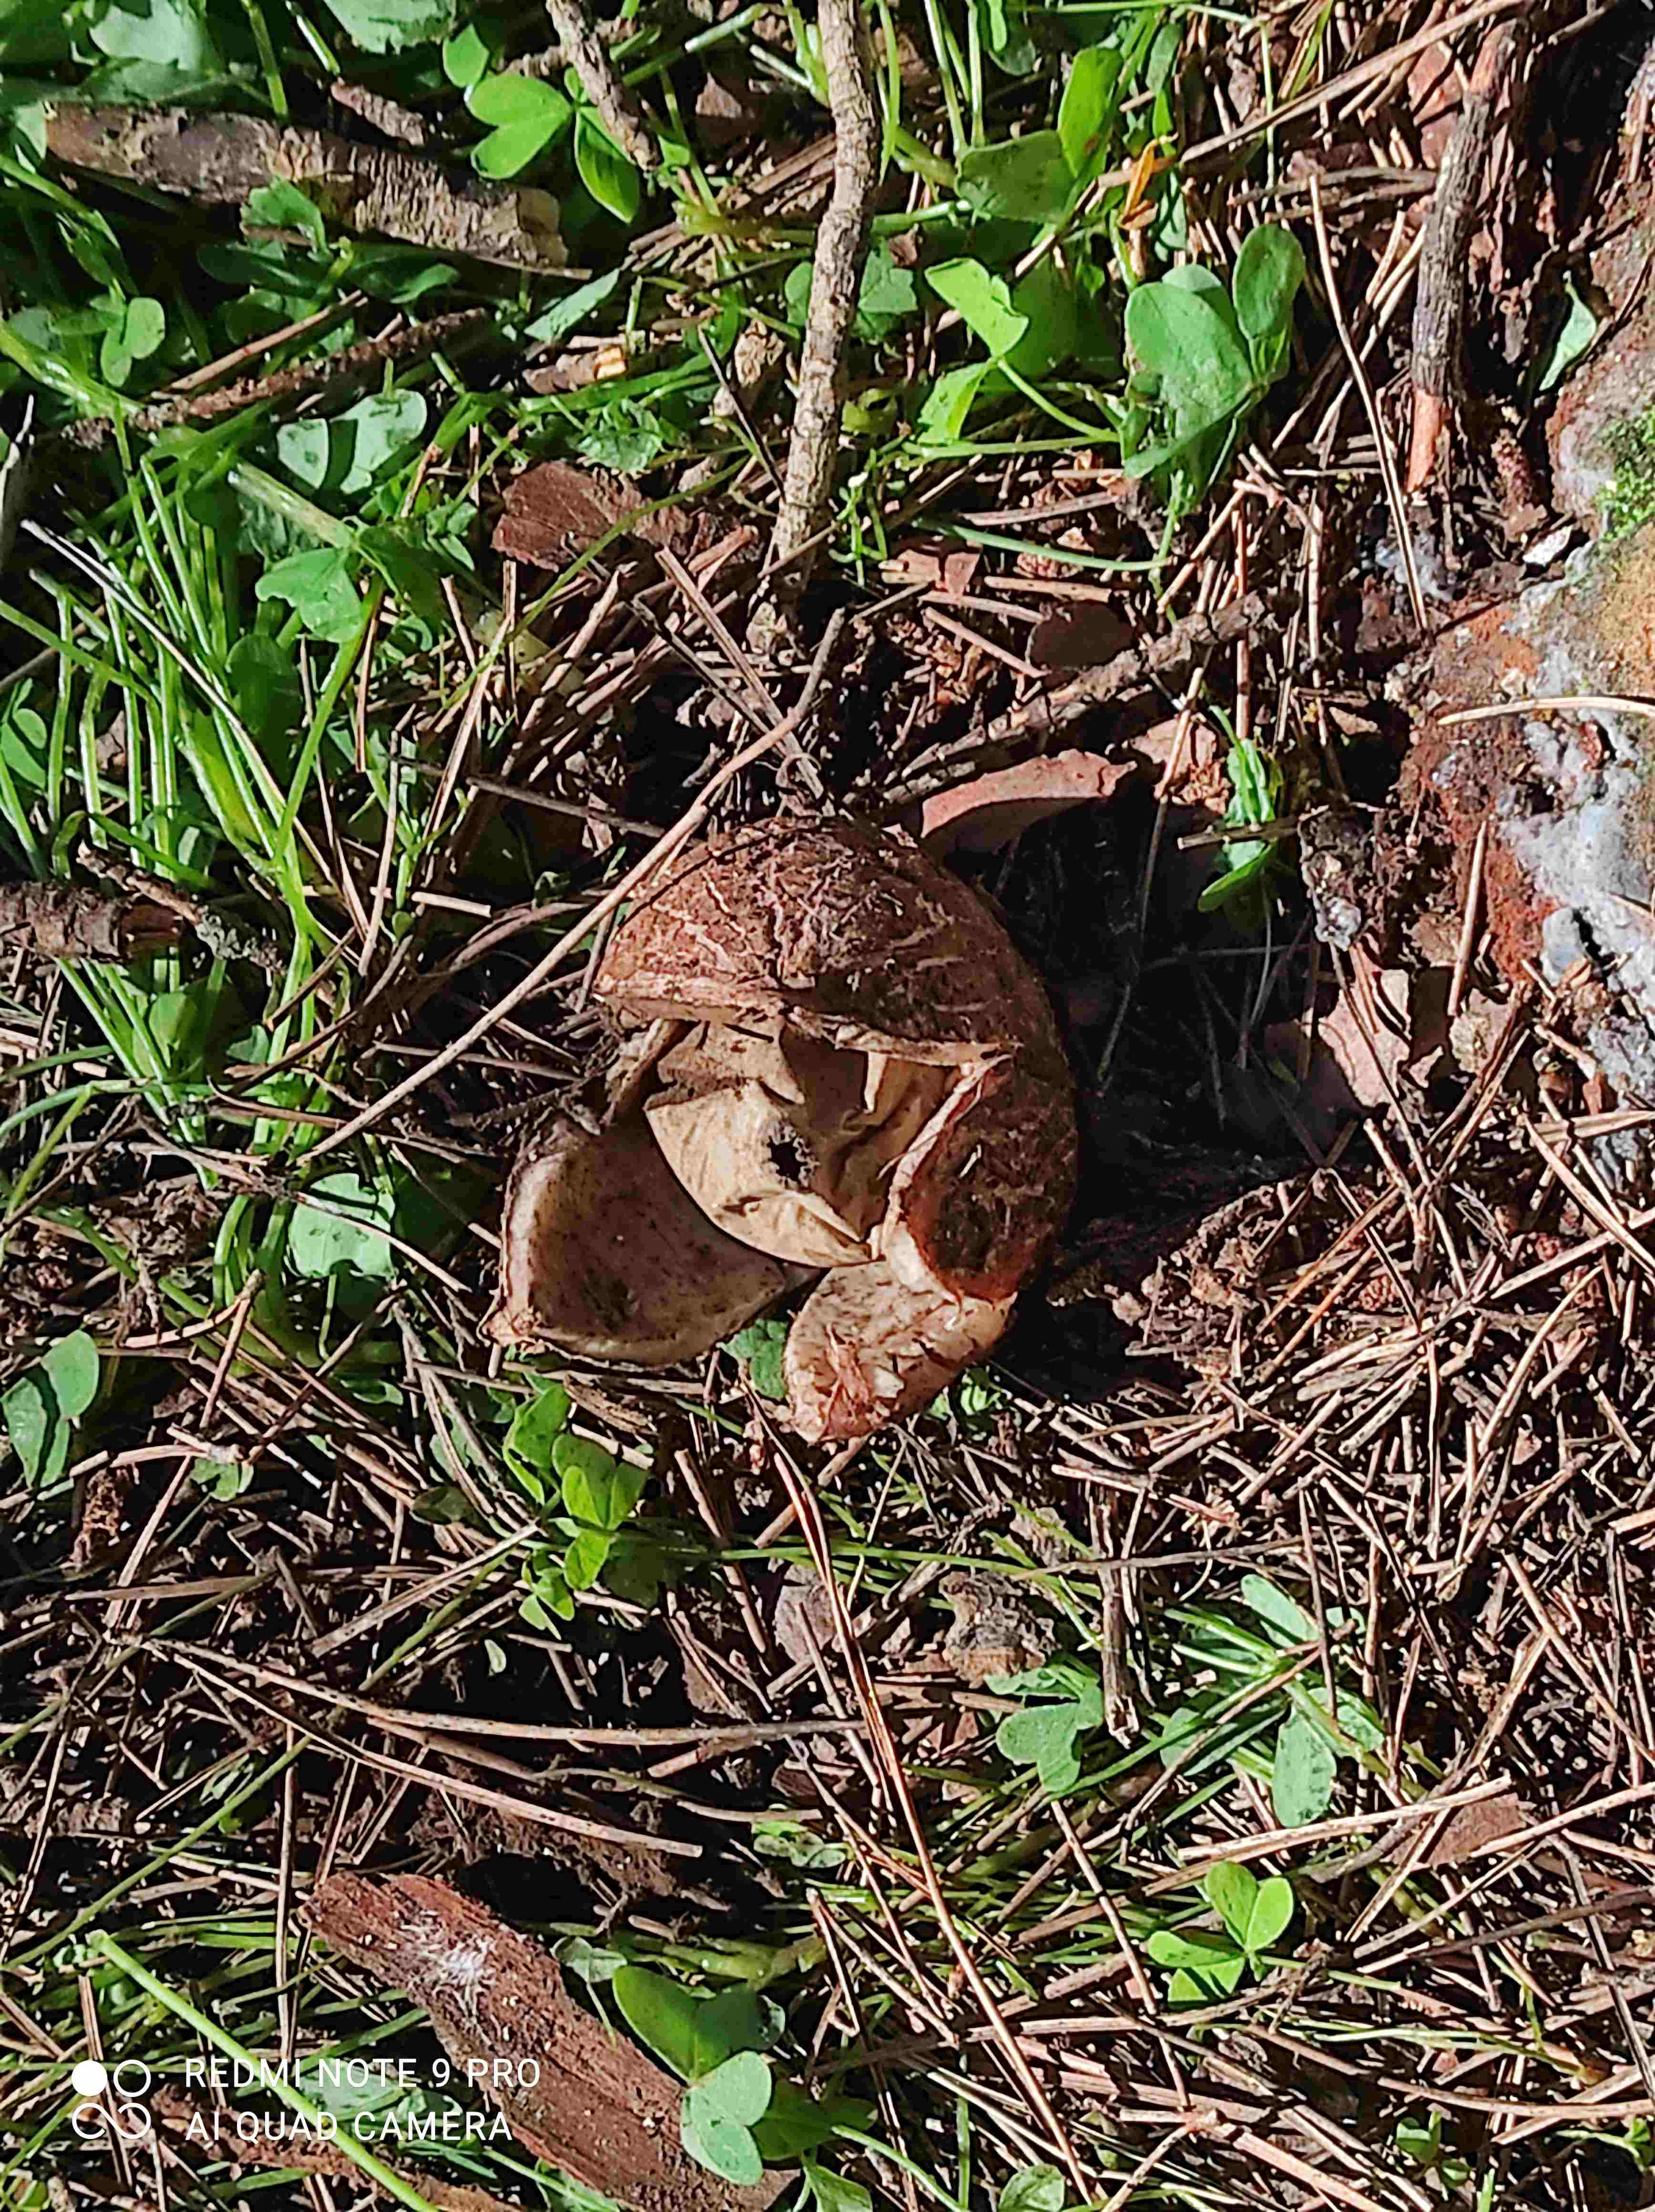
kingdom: Fungi
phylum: Basidiomycota
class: Agaricomycetes
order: Geastrales
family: Geastraceae
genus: Geastrum
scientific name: Geastrum
